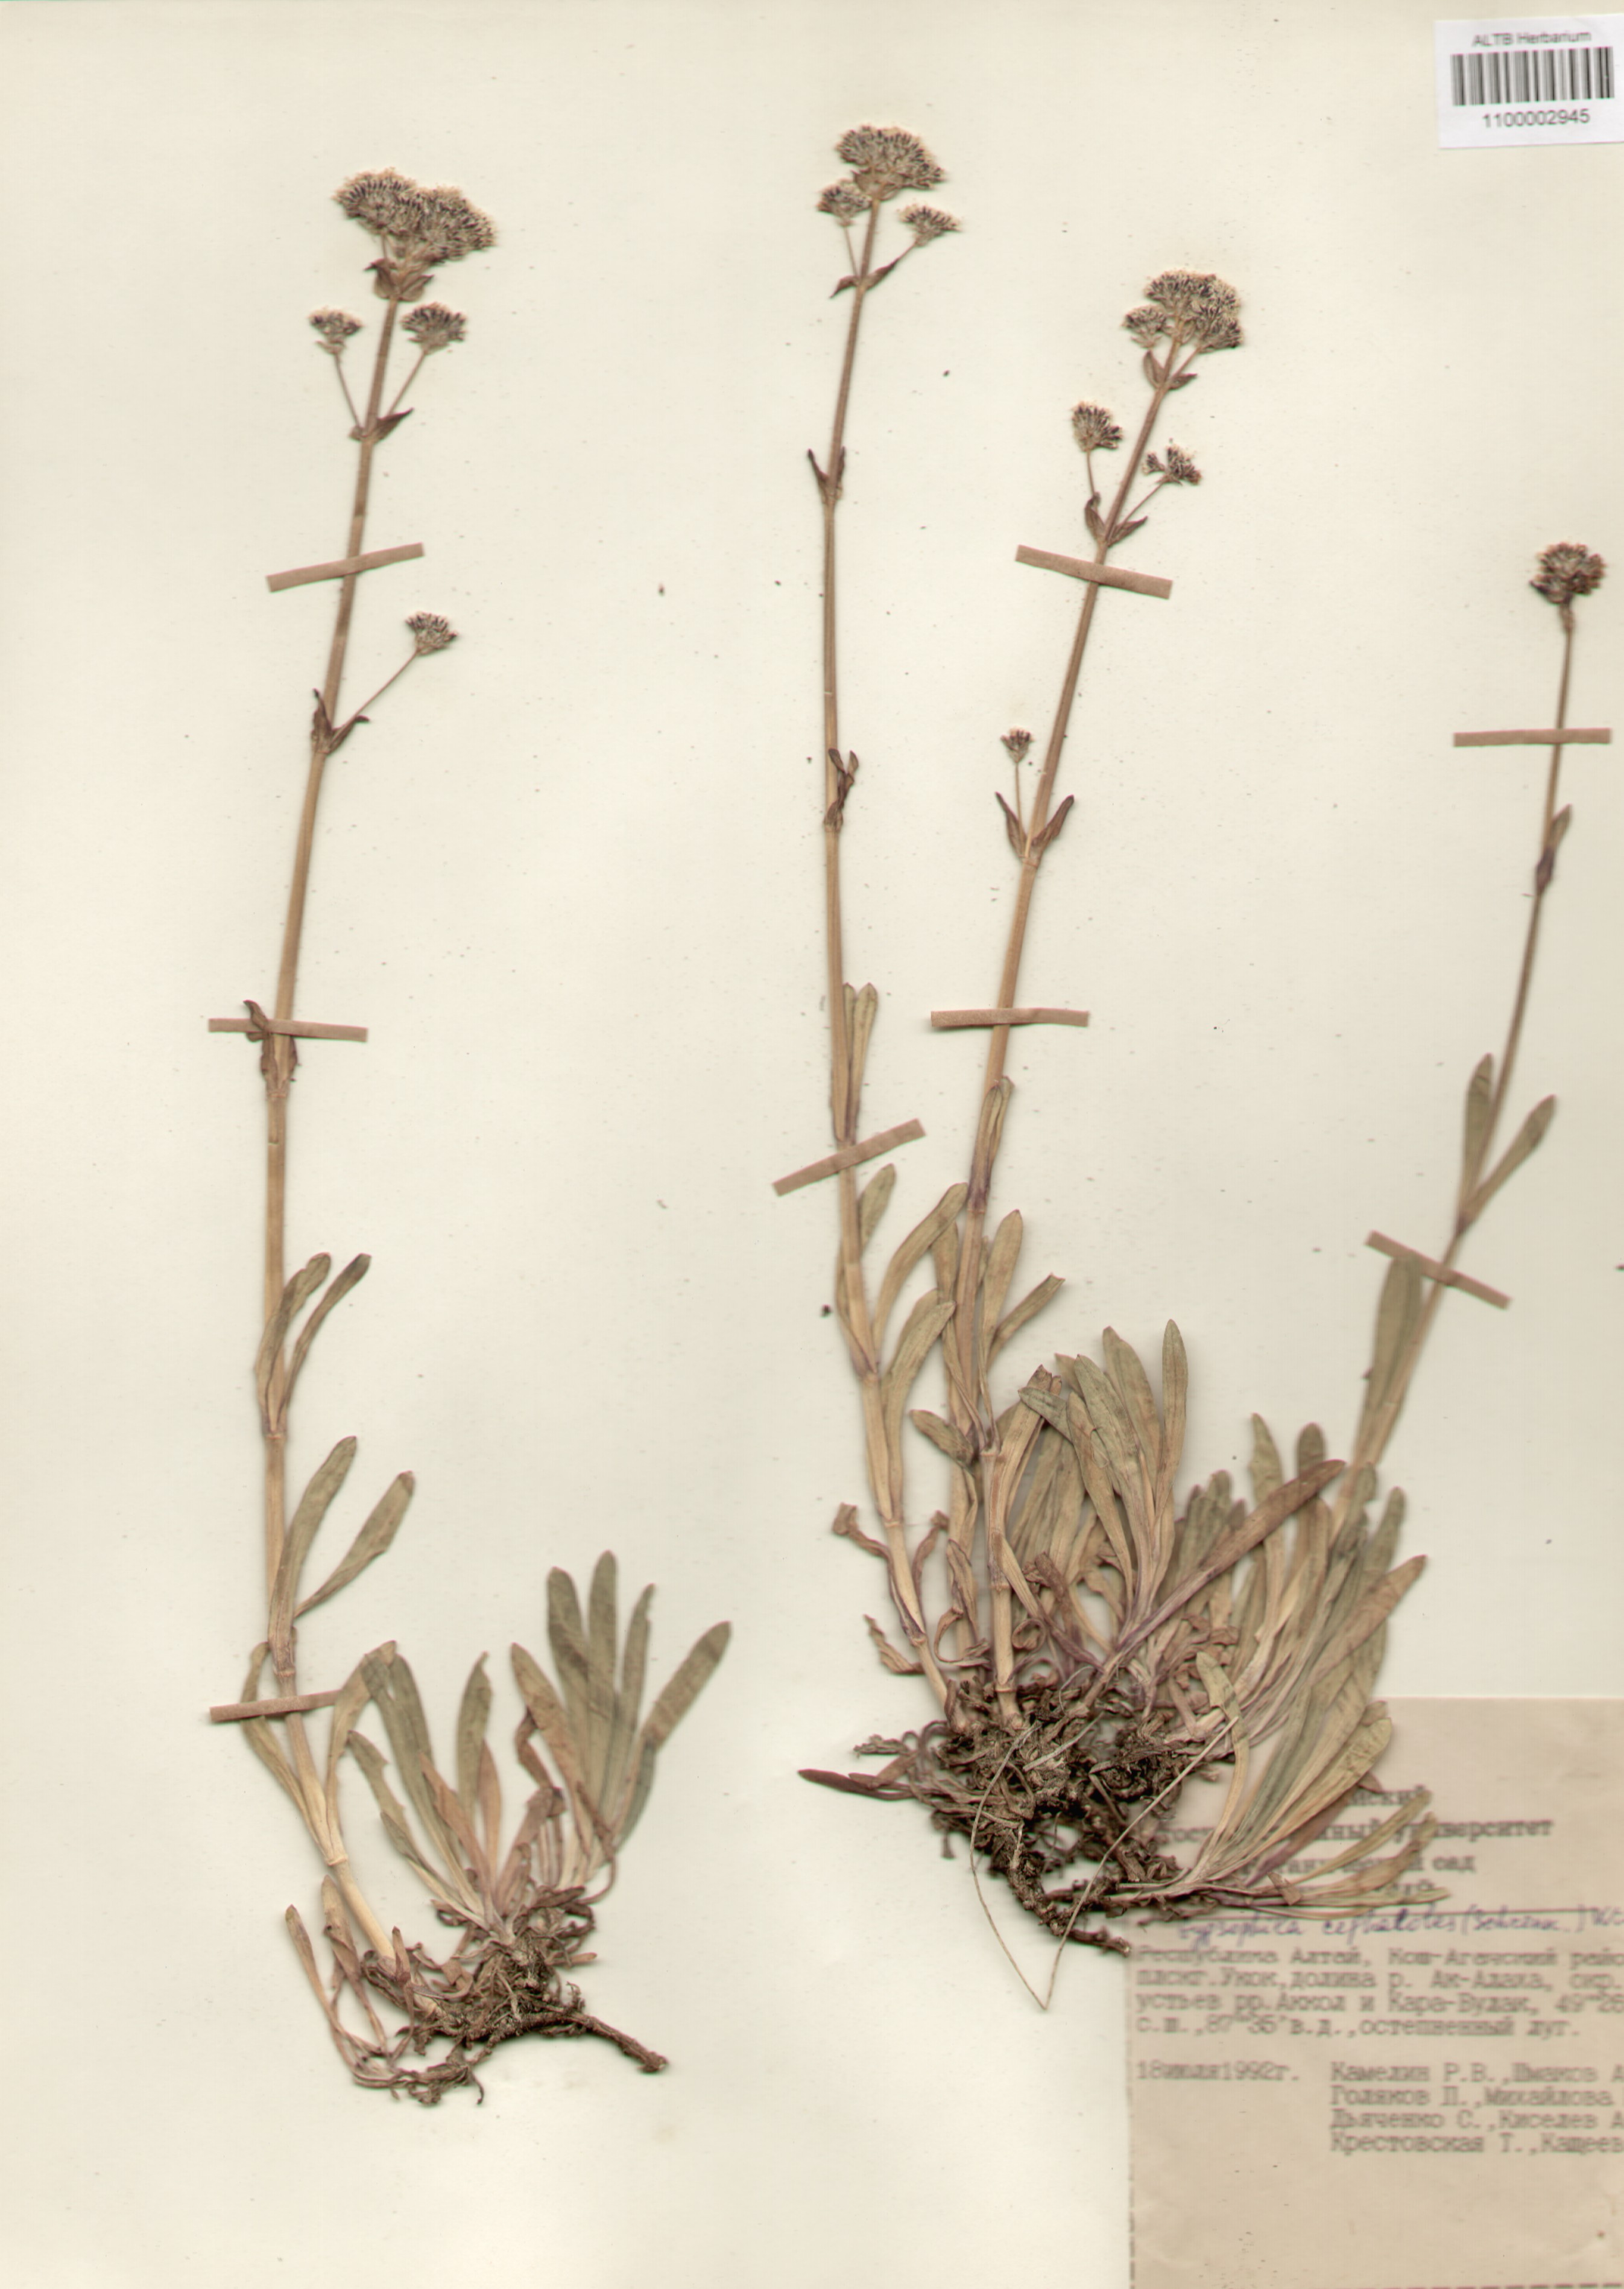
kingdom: Plantae
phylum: Tracheophyta
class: Magnoliopsida
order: Caryophyllales
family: Caryophyllaceae
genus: Gypsophila
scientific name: Gypsophila cephalotes
